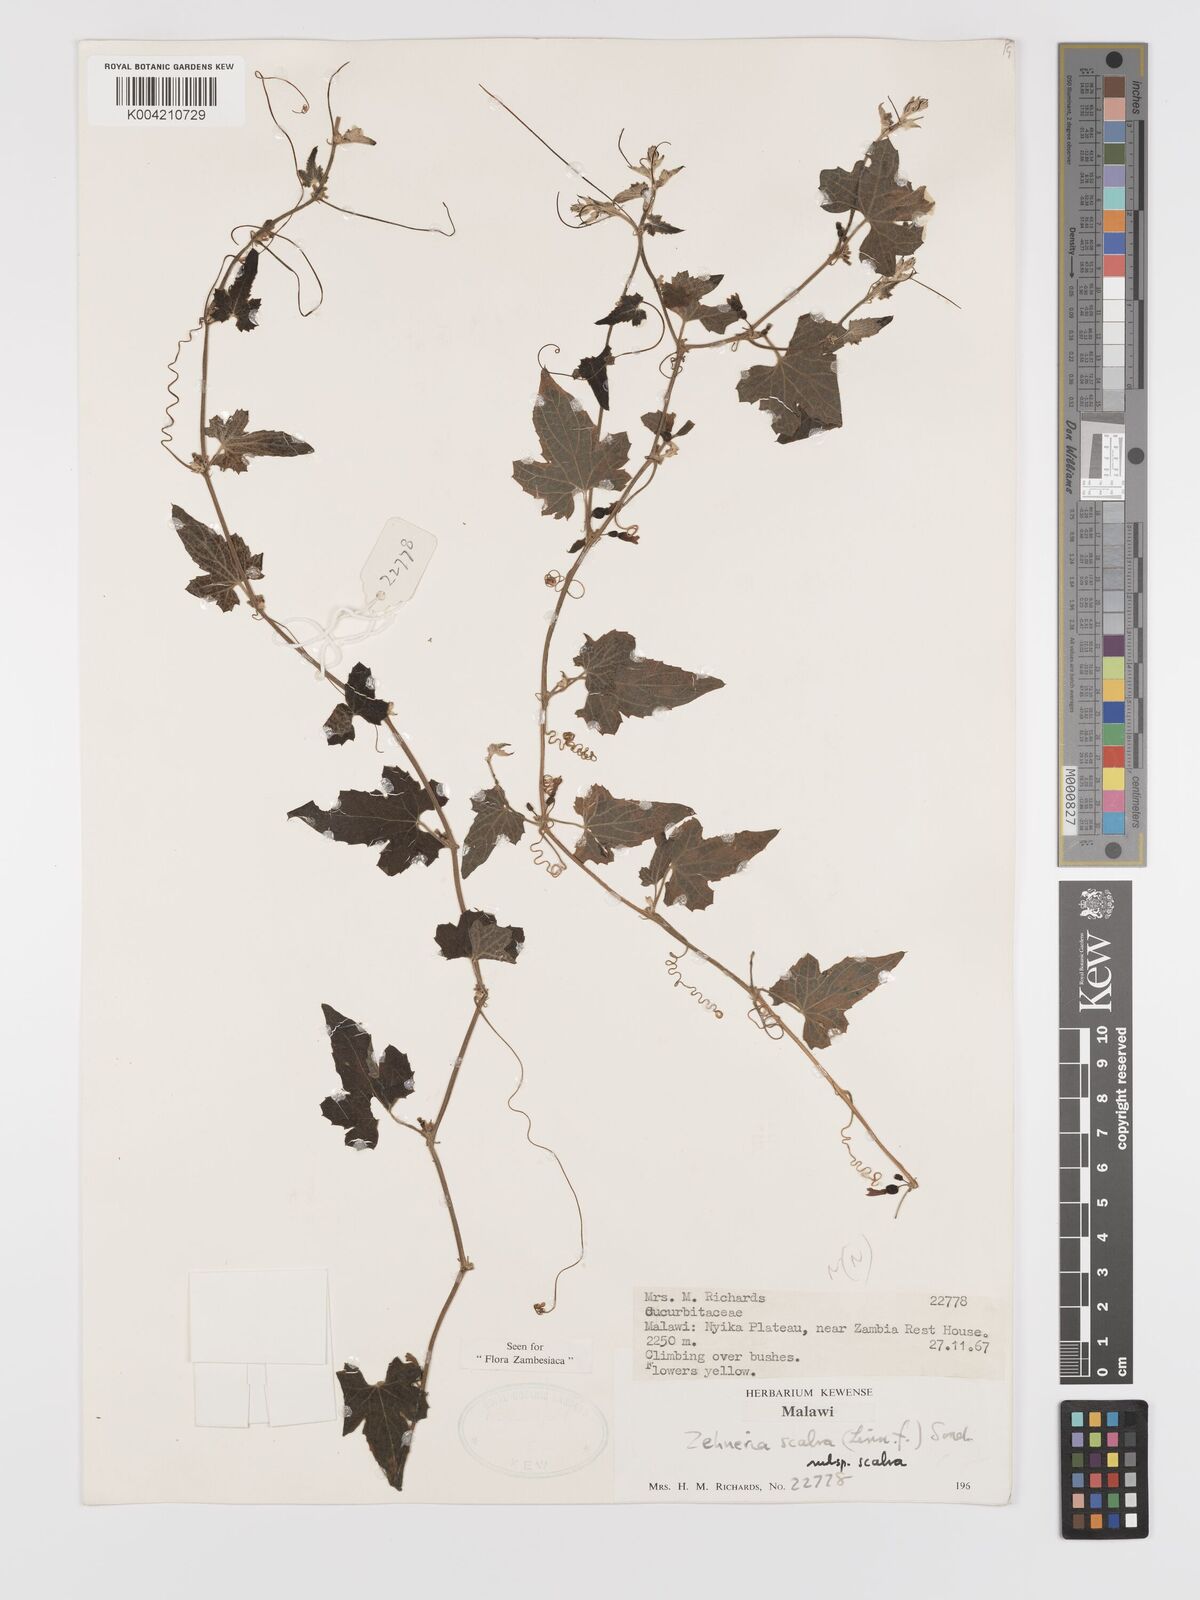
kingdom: Plantae
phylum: Tracheophyta
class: Magnoliopsida
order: Cucurbitales
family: Cucurbitaceae
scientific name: Cucurbitaceae
